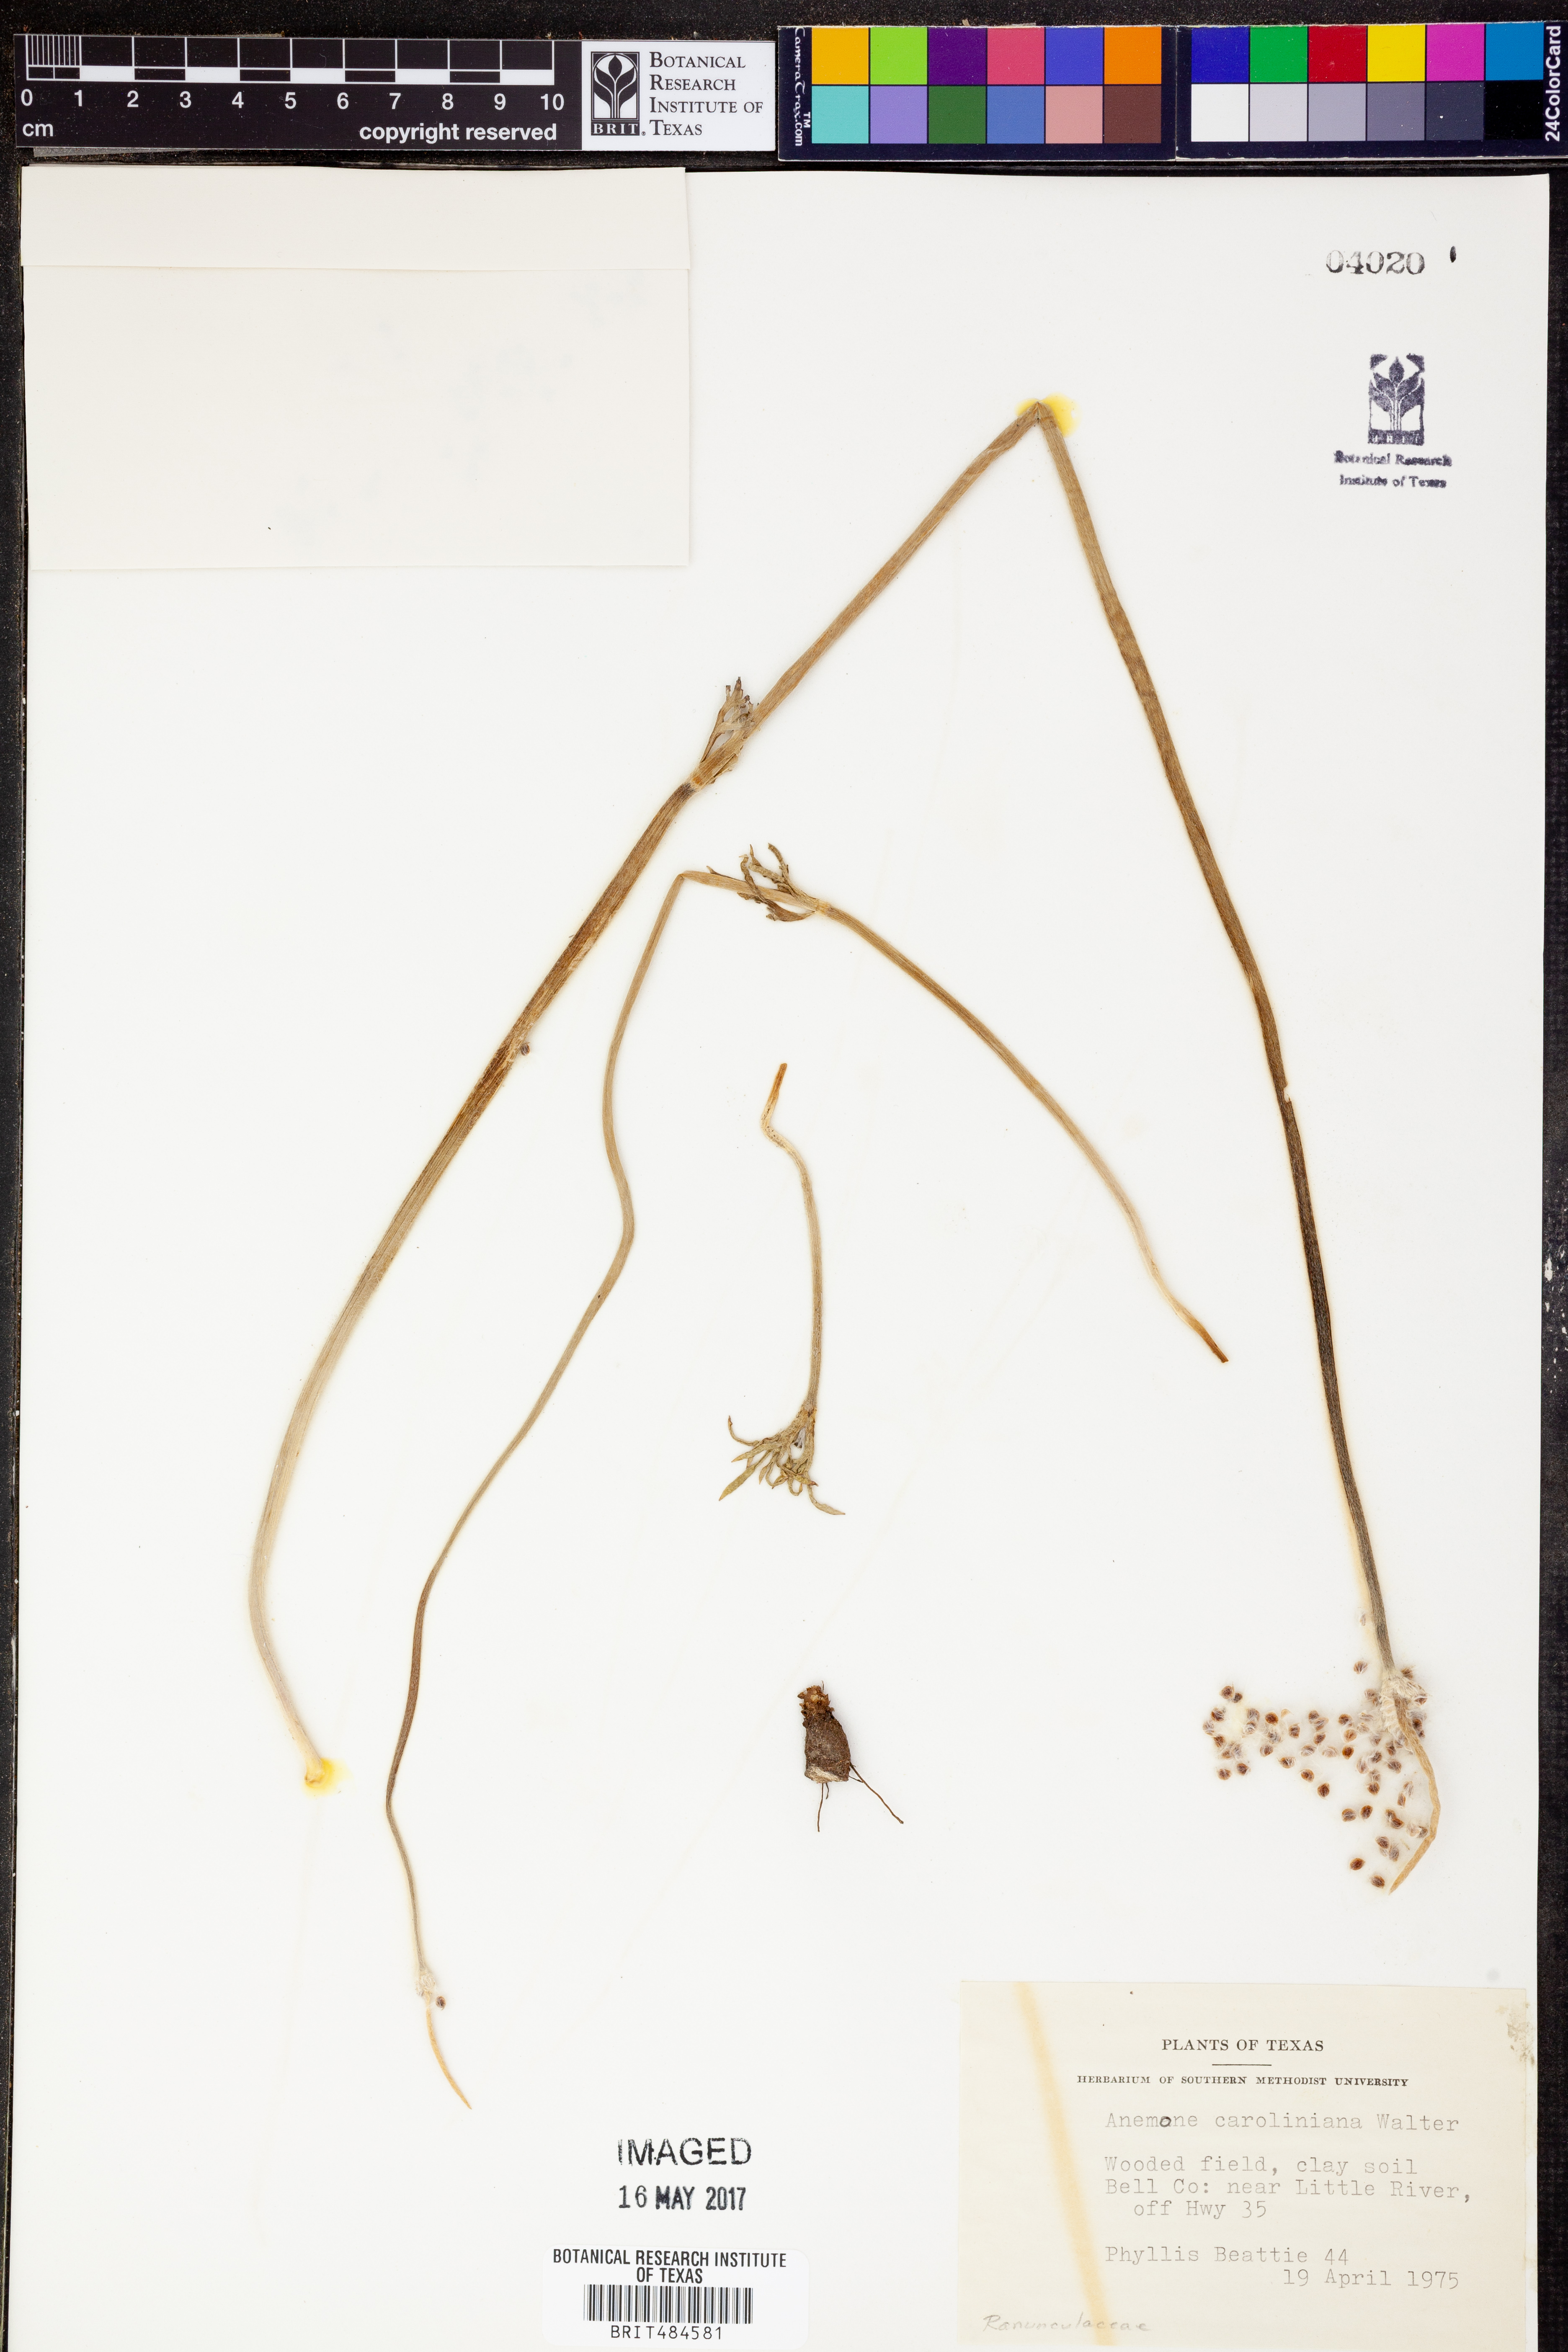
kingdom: Plantae
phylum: Tracheophyta
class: Magnoliopsida
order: Ranunculales
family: Ranunculaceae
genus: Anemone
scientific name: Anemone caroliniana
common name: Carolina anemone
